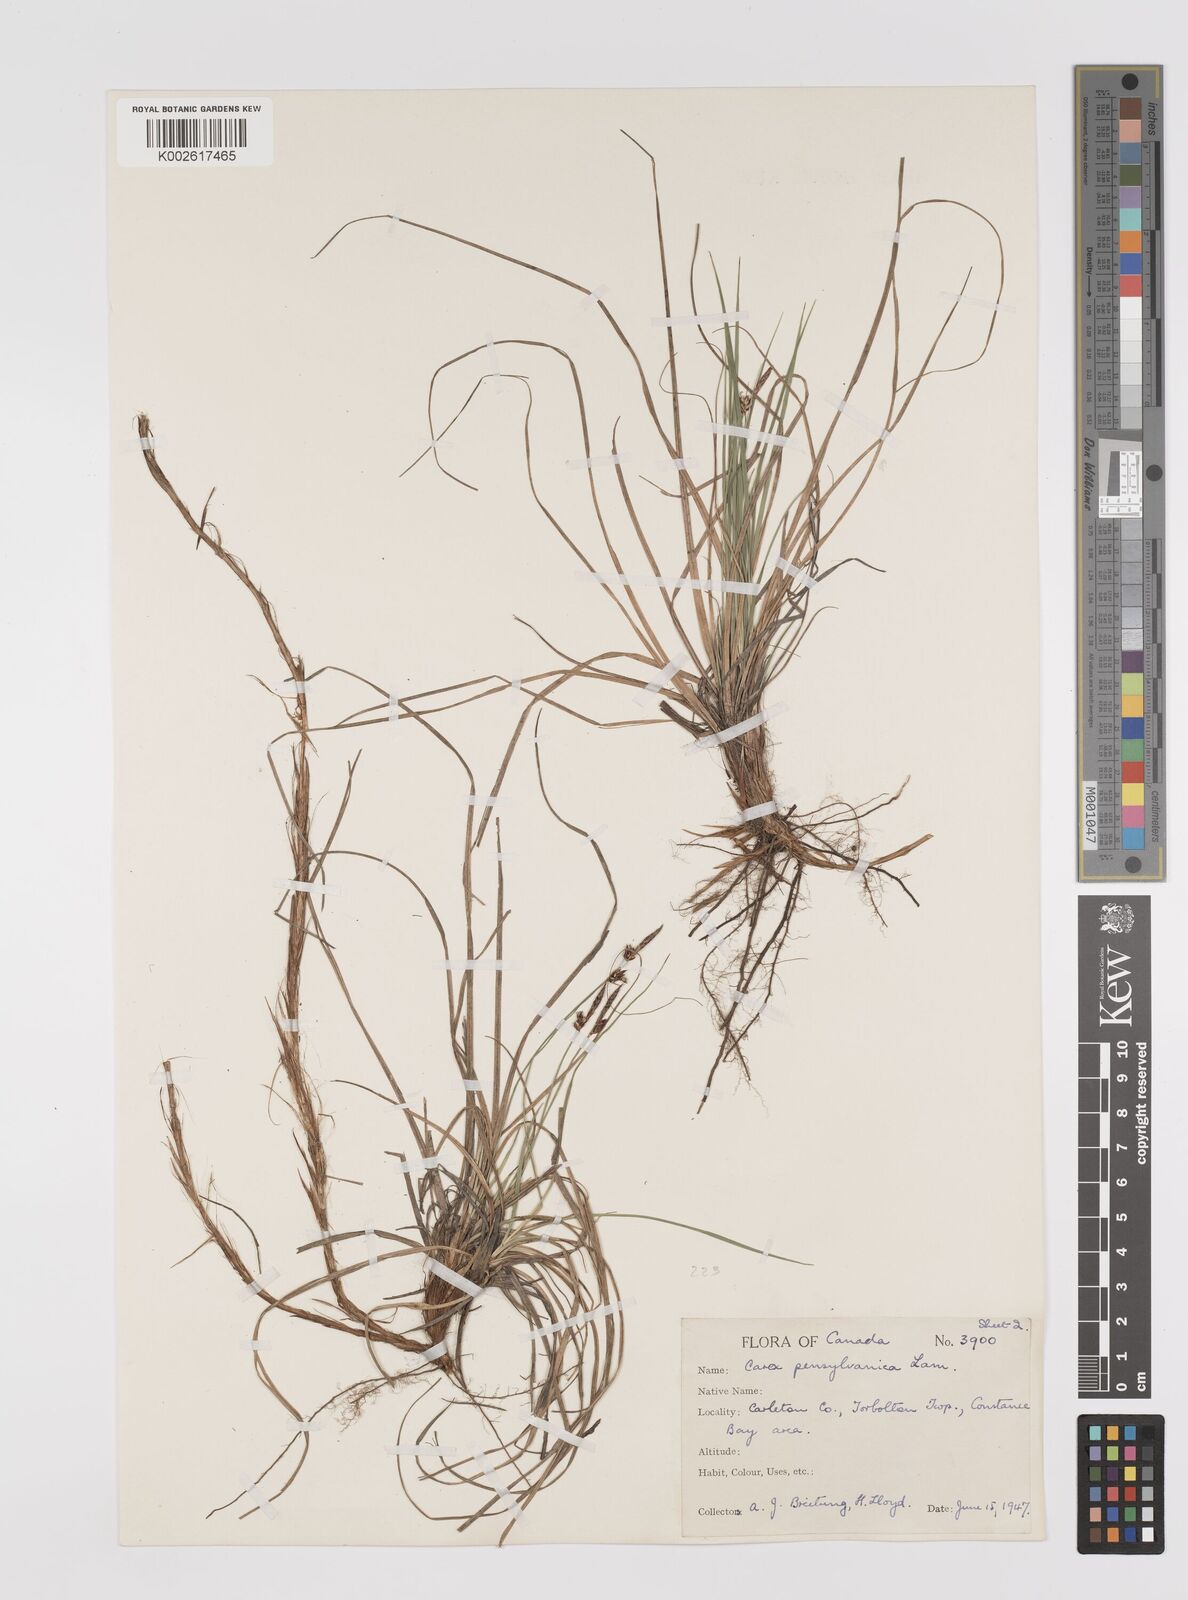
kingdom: Plantae
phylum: Tracheophyta
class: Liliopsida
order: Poales
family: Cyperaceae
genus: Carex
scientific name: Carex pensylvanica
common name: Common oak sedge
